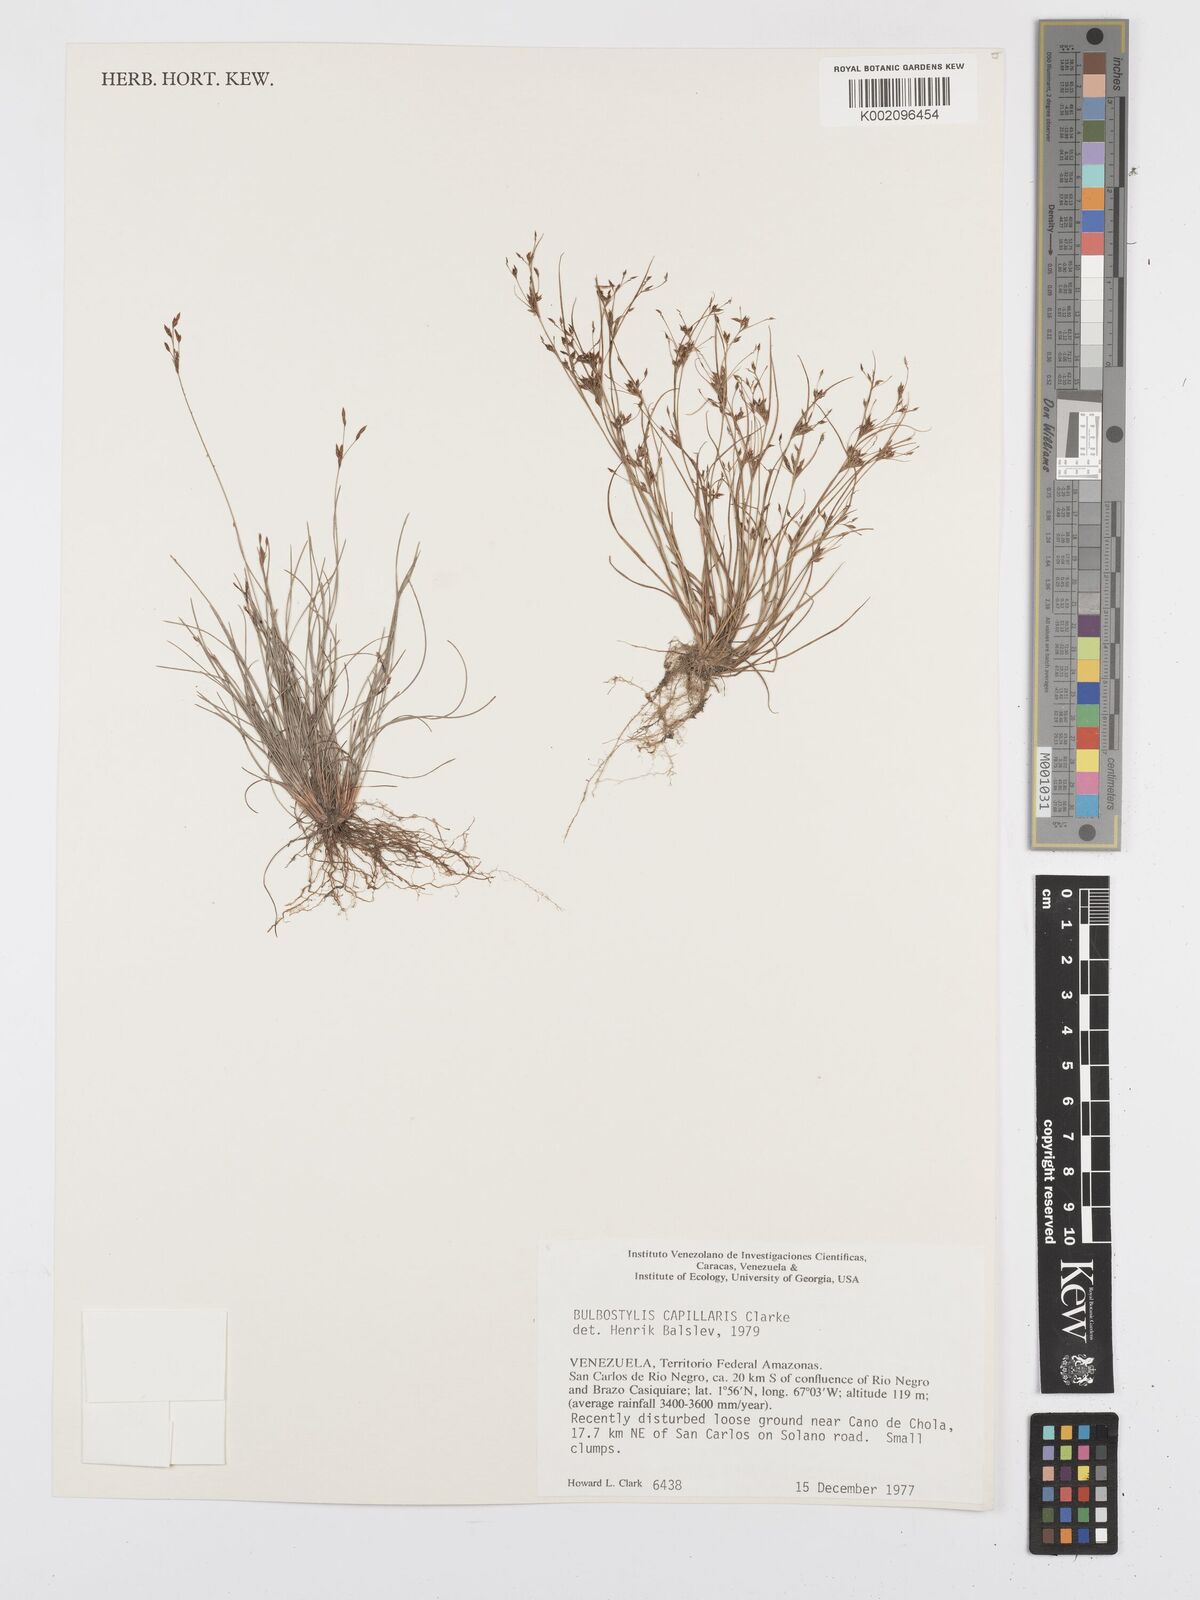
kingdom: Plantae
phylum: Tracheophyta
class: Liliopsida
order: Poales
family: Cyperaceae
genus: Bulbostylis
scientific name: Bulbostylis capillaris
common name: Densetuft hairsedge
